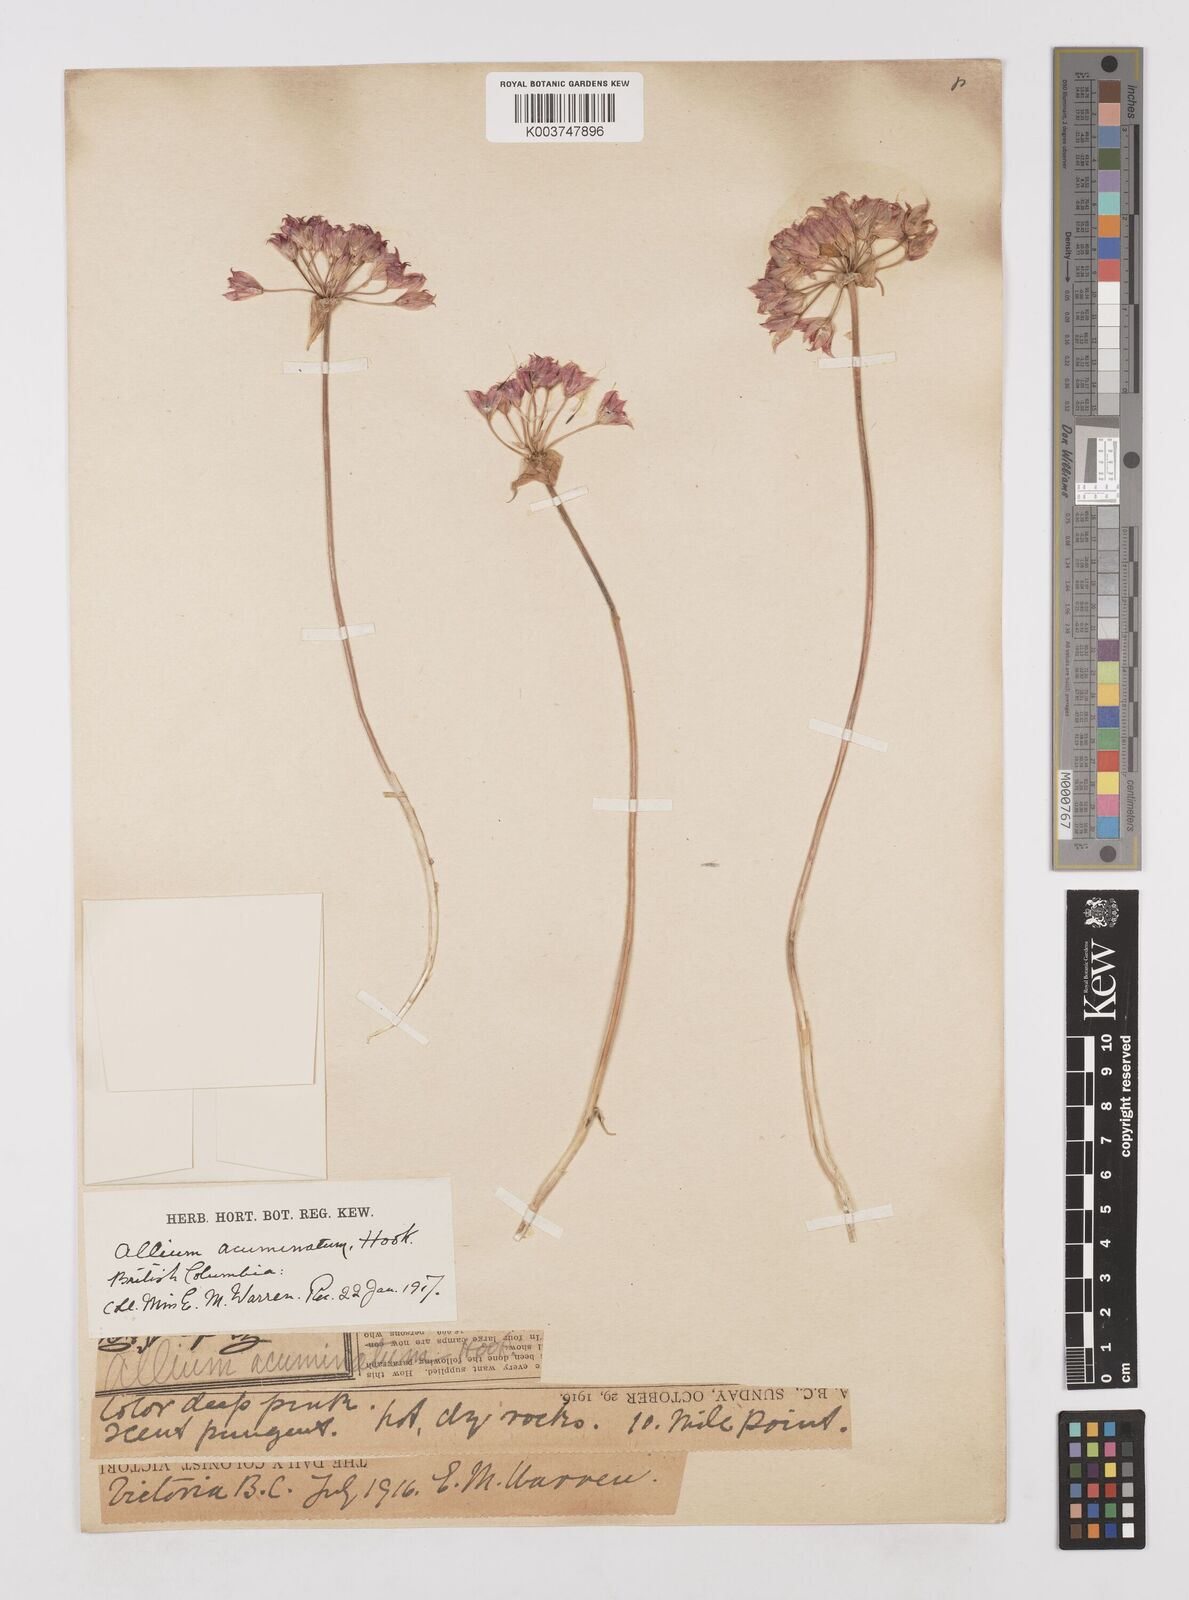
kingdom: Plantae
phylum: Tracheophyta
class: Liliopsida
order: Asparagales
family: Amaryllidaceae
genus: Allium
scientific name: Allium acuminatum
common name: Hooker's onion
